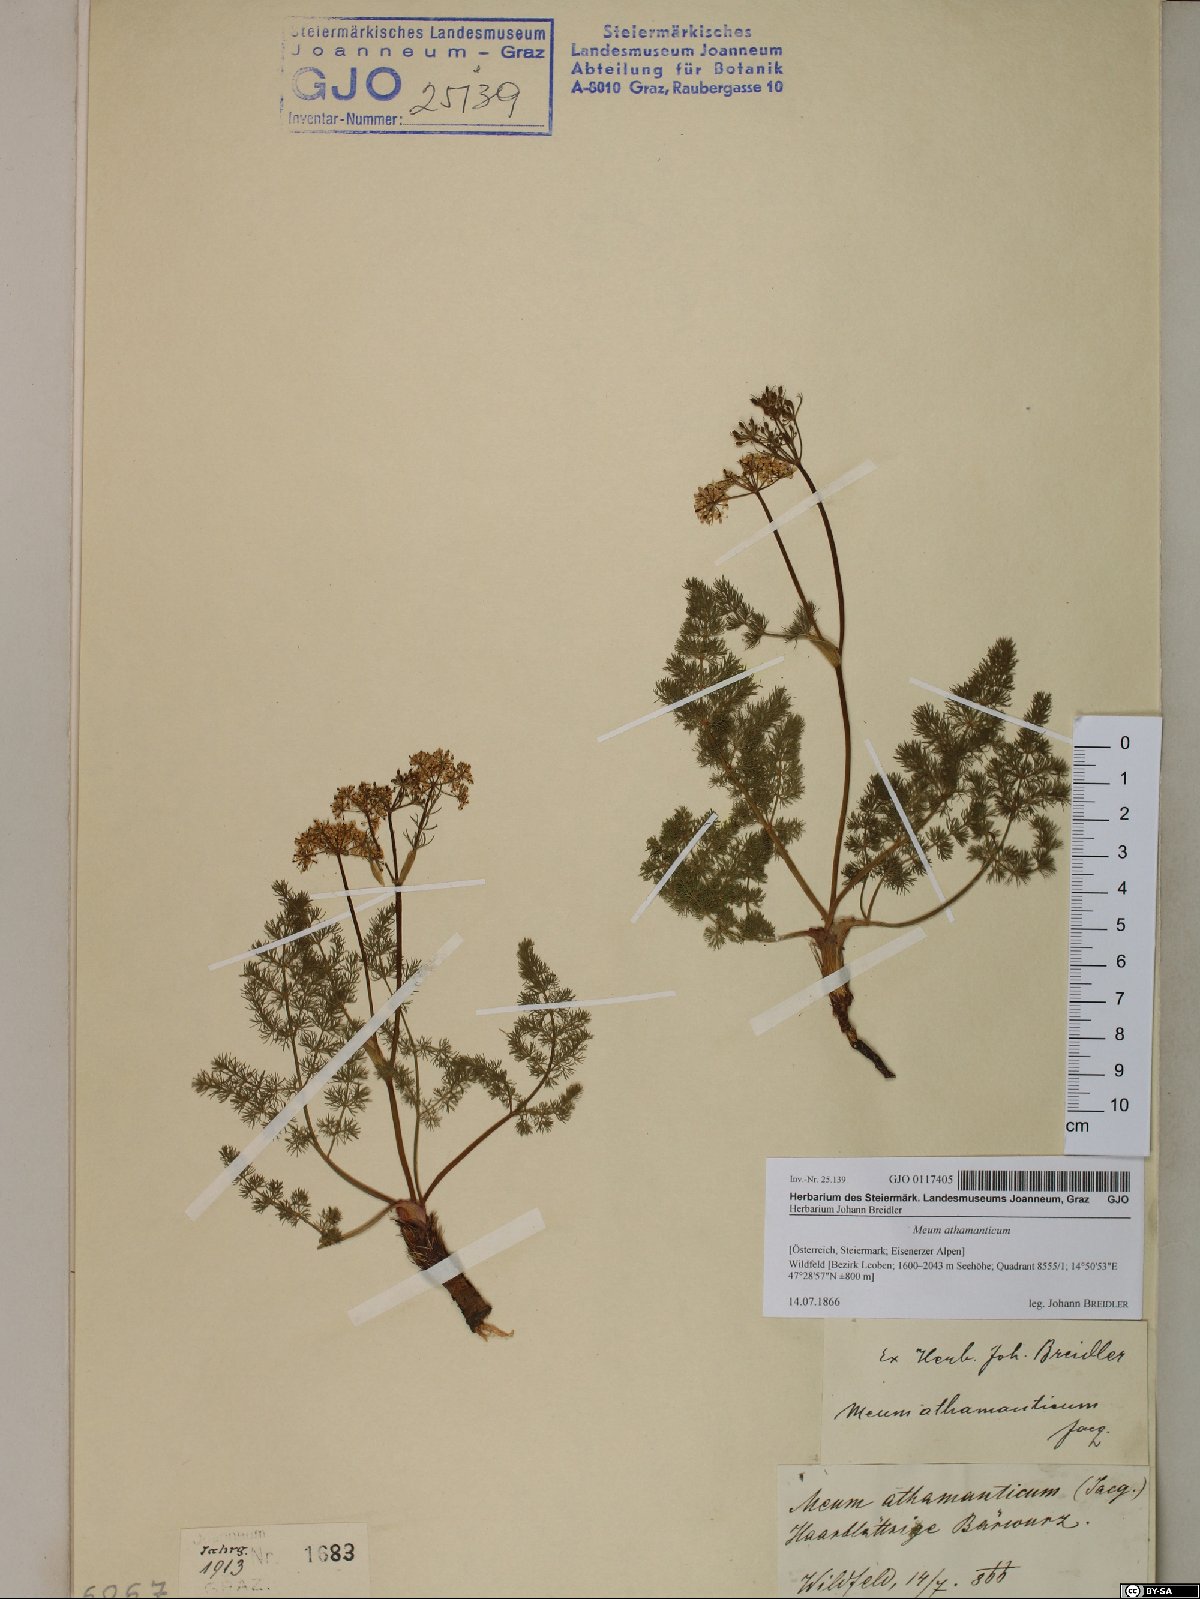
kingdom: Plantae
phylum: Tracheophyta
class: Magnoliopsida
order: Apiales
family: Apiaceae
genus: Meum
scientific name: Meum athamanticum
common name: Spignel
